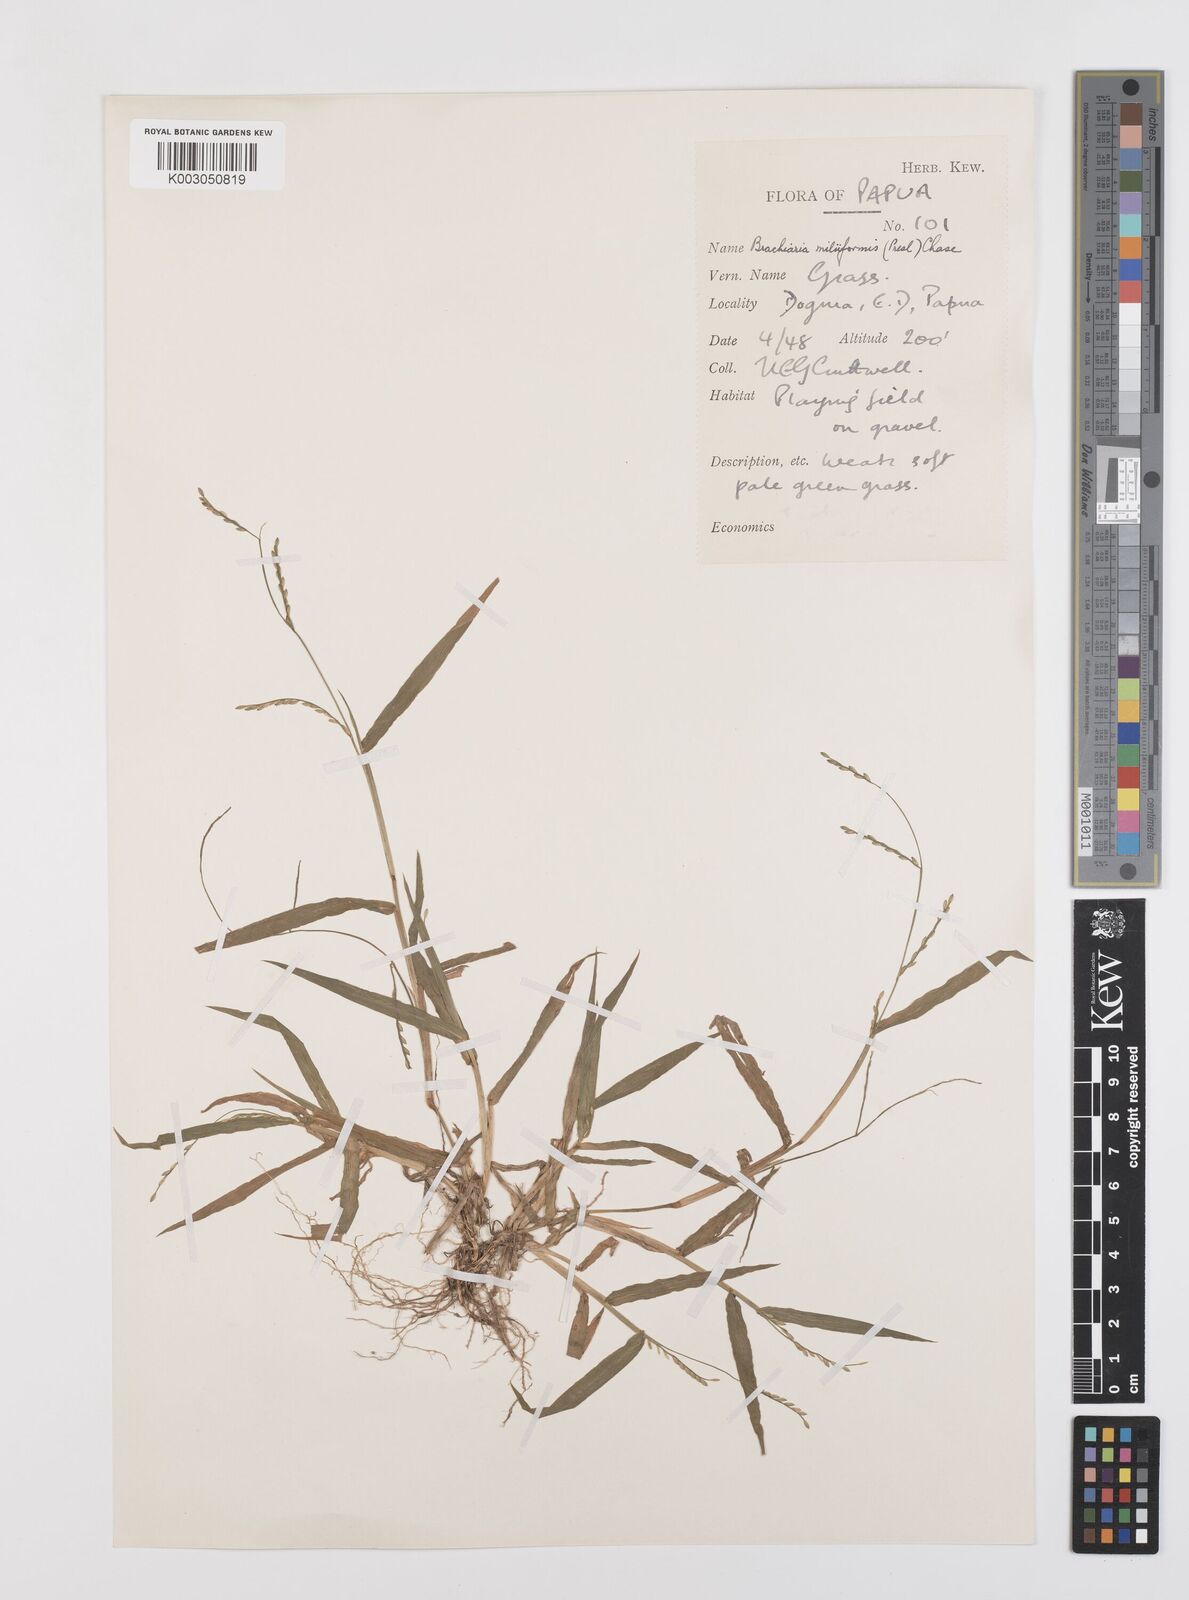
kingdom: Plantae
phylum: Tracheophyta
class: Liliopsida
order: Poales
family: Poaceae
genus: Urochloa
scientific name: Urochloa subquadripara
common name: Armgrass millet
